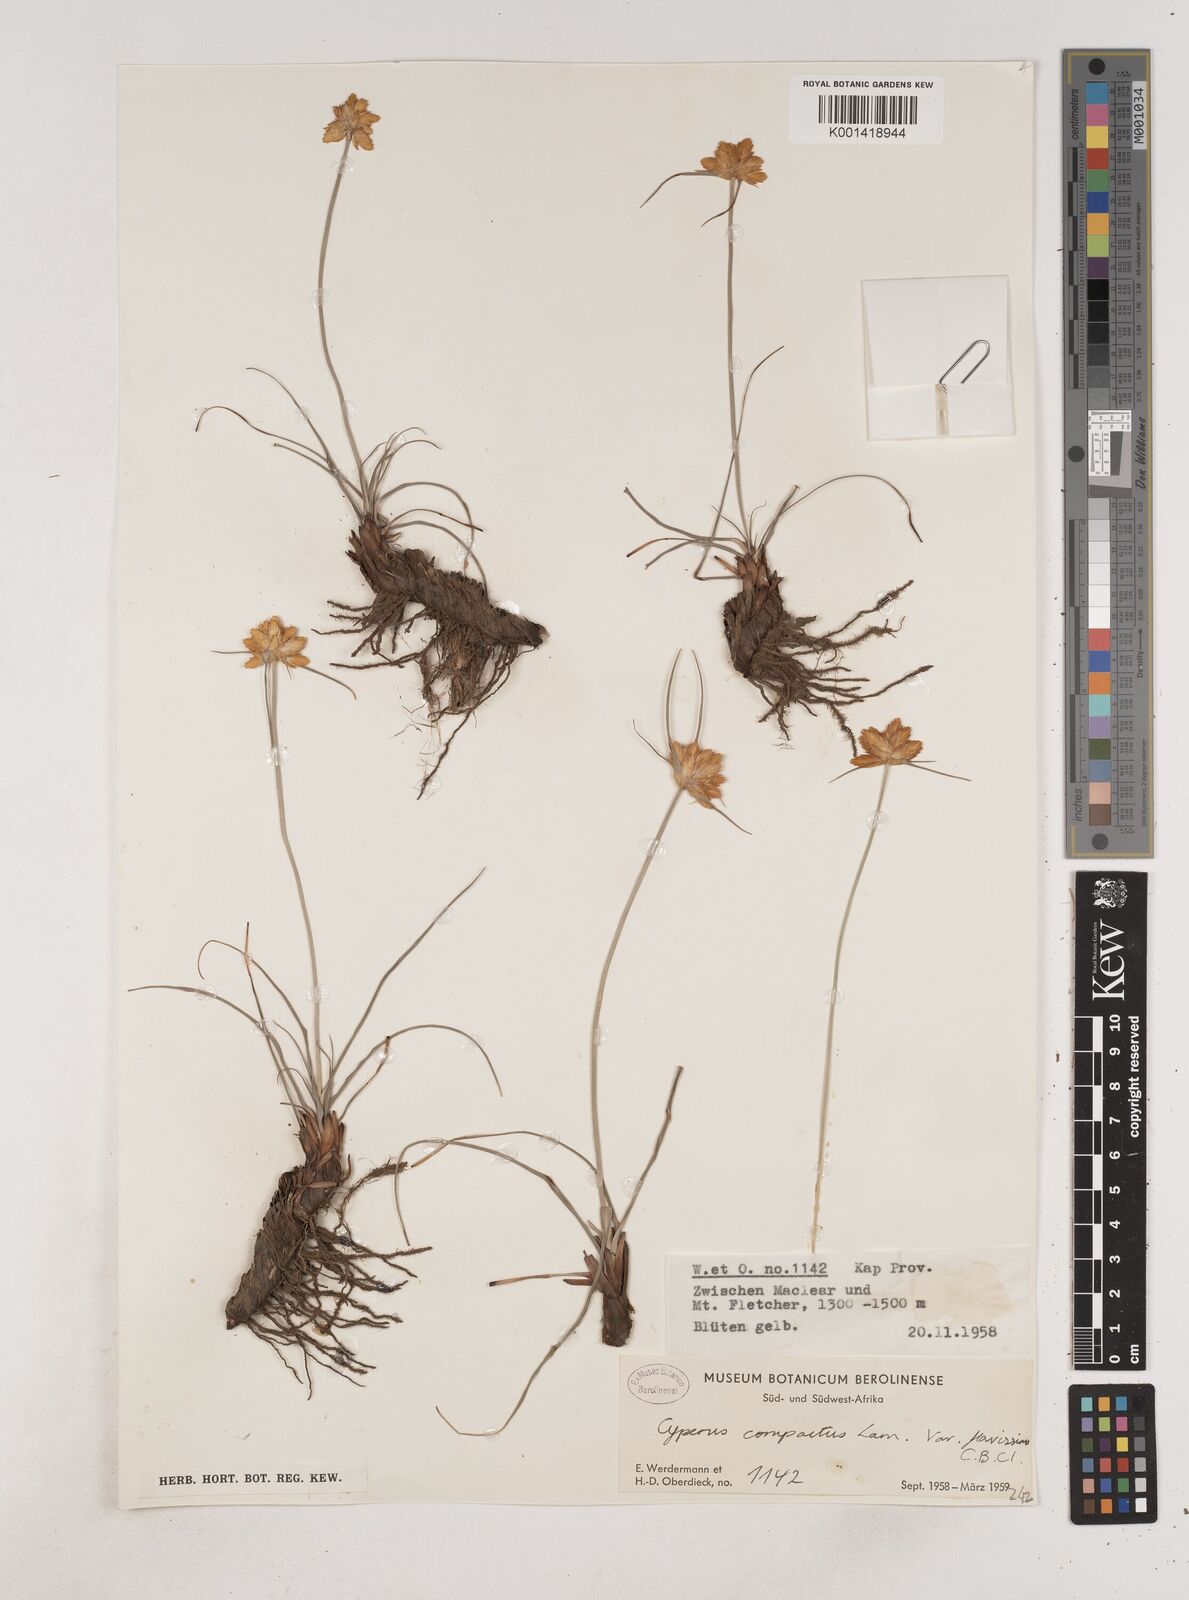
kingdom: Plantae
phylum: Tracheophyta
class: Liliopsida
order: Poales
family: Cyperaceae
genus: Cyperus
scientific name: Cyperus sphaerocephalus
